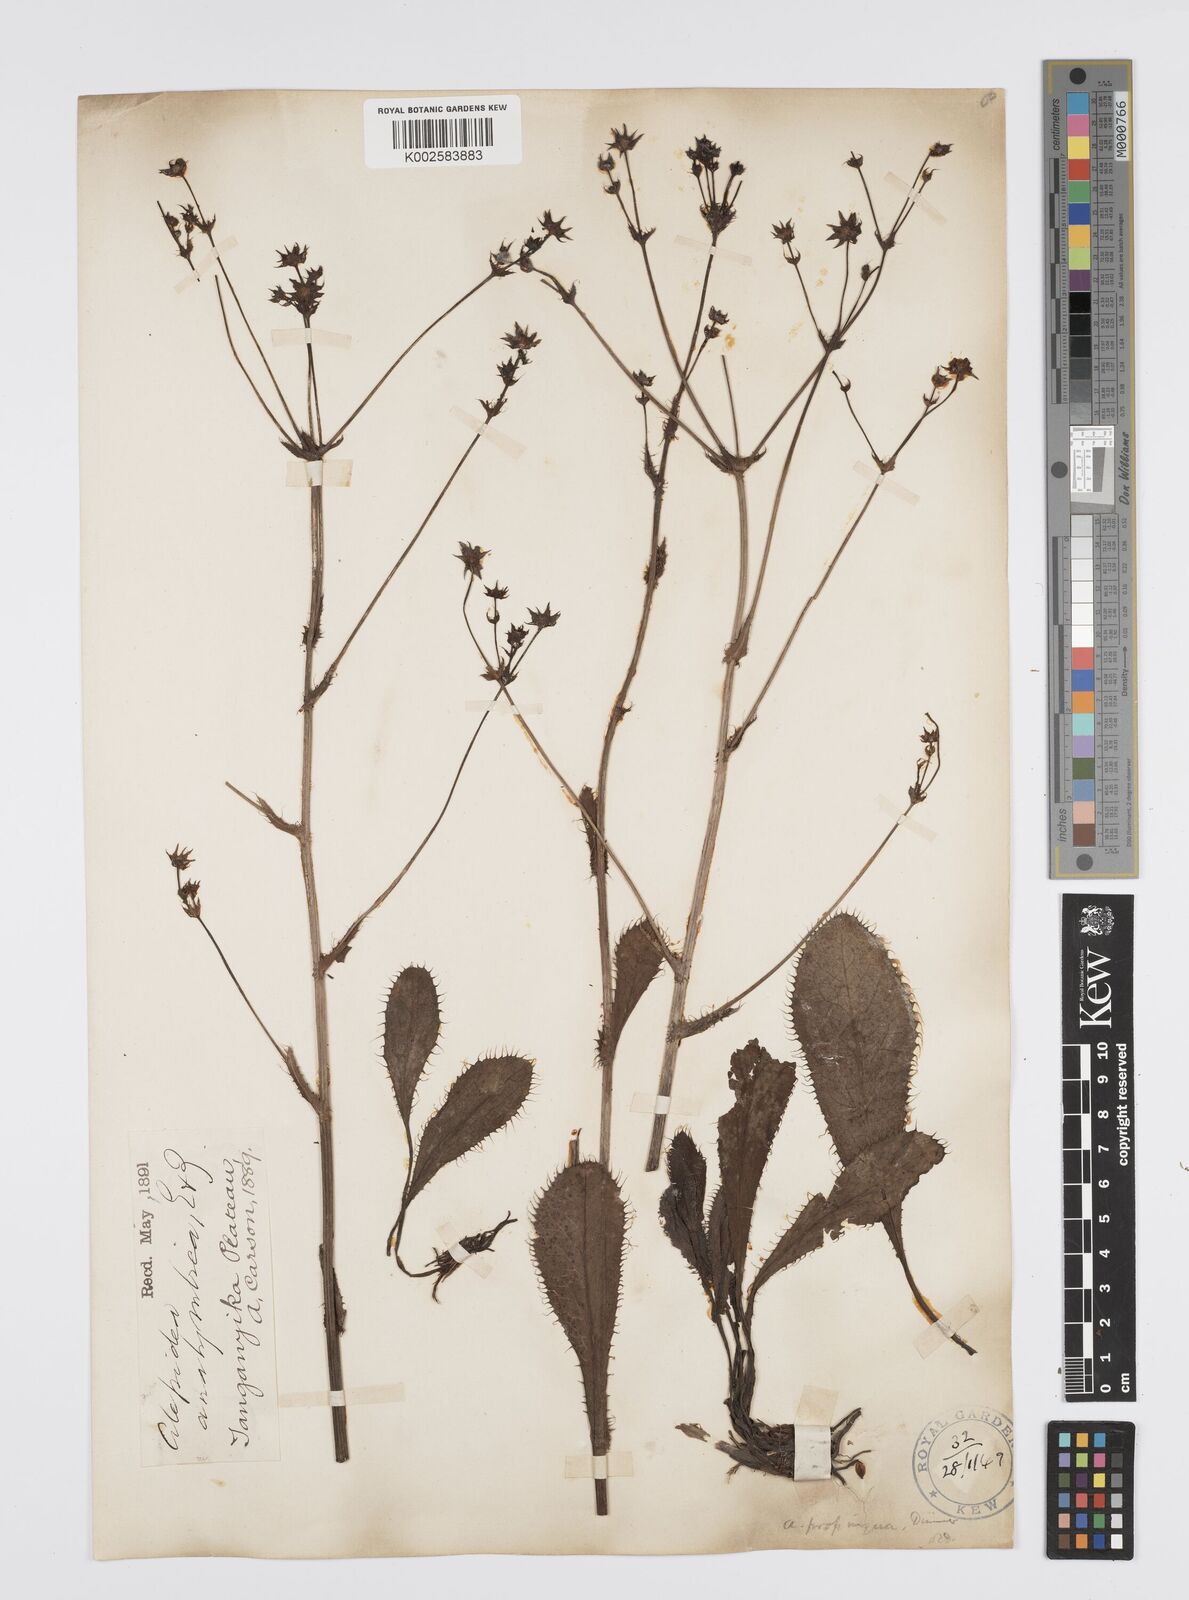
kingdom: Plantae
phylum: Tracheophyta
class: Magnoliopsida
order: Apiales
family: Apiaceae
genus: Alepidea
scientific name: Alepidea
